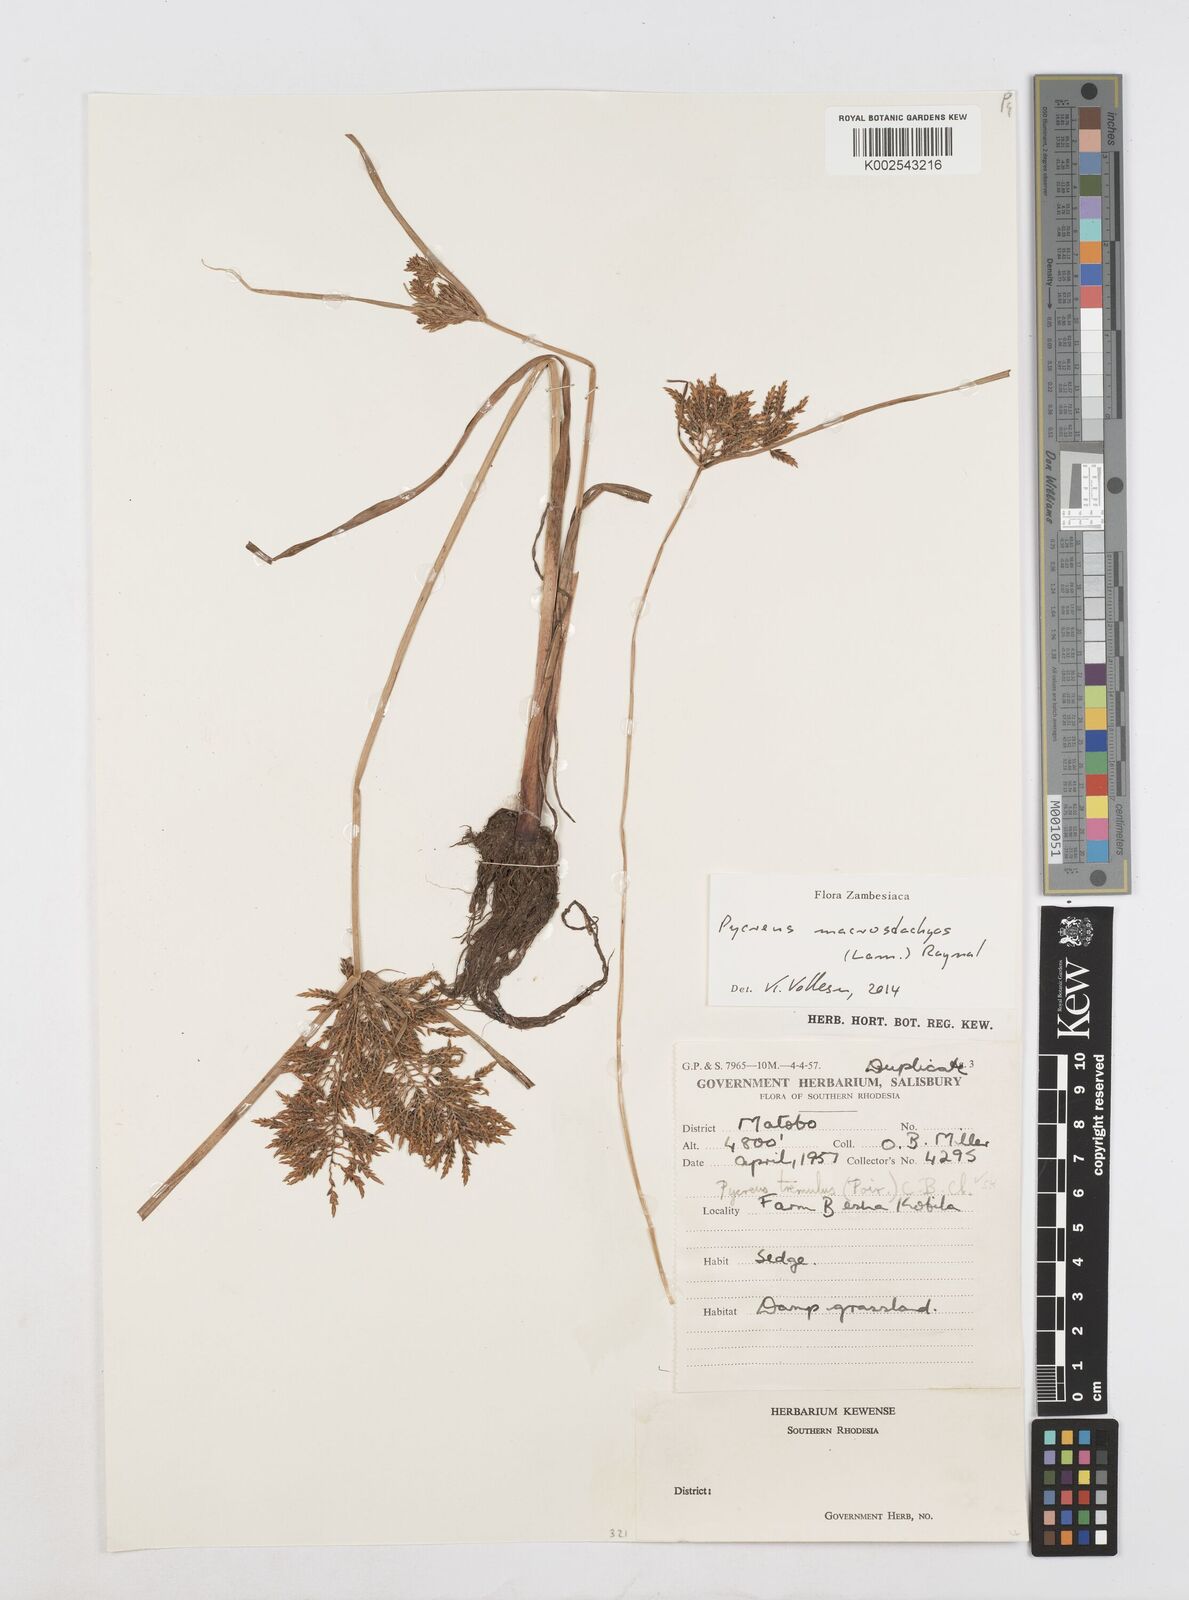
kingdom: Plantae
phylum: Tracheophyta
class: Liliopsida
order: Poales
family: Cyperaceae
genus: Cyperus
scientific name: Cyperus macrostachyos
